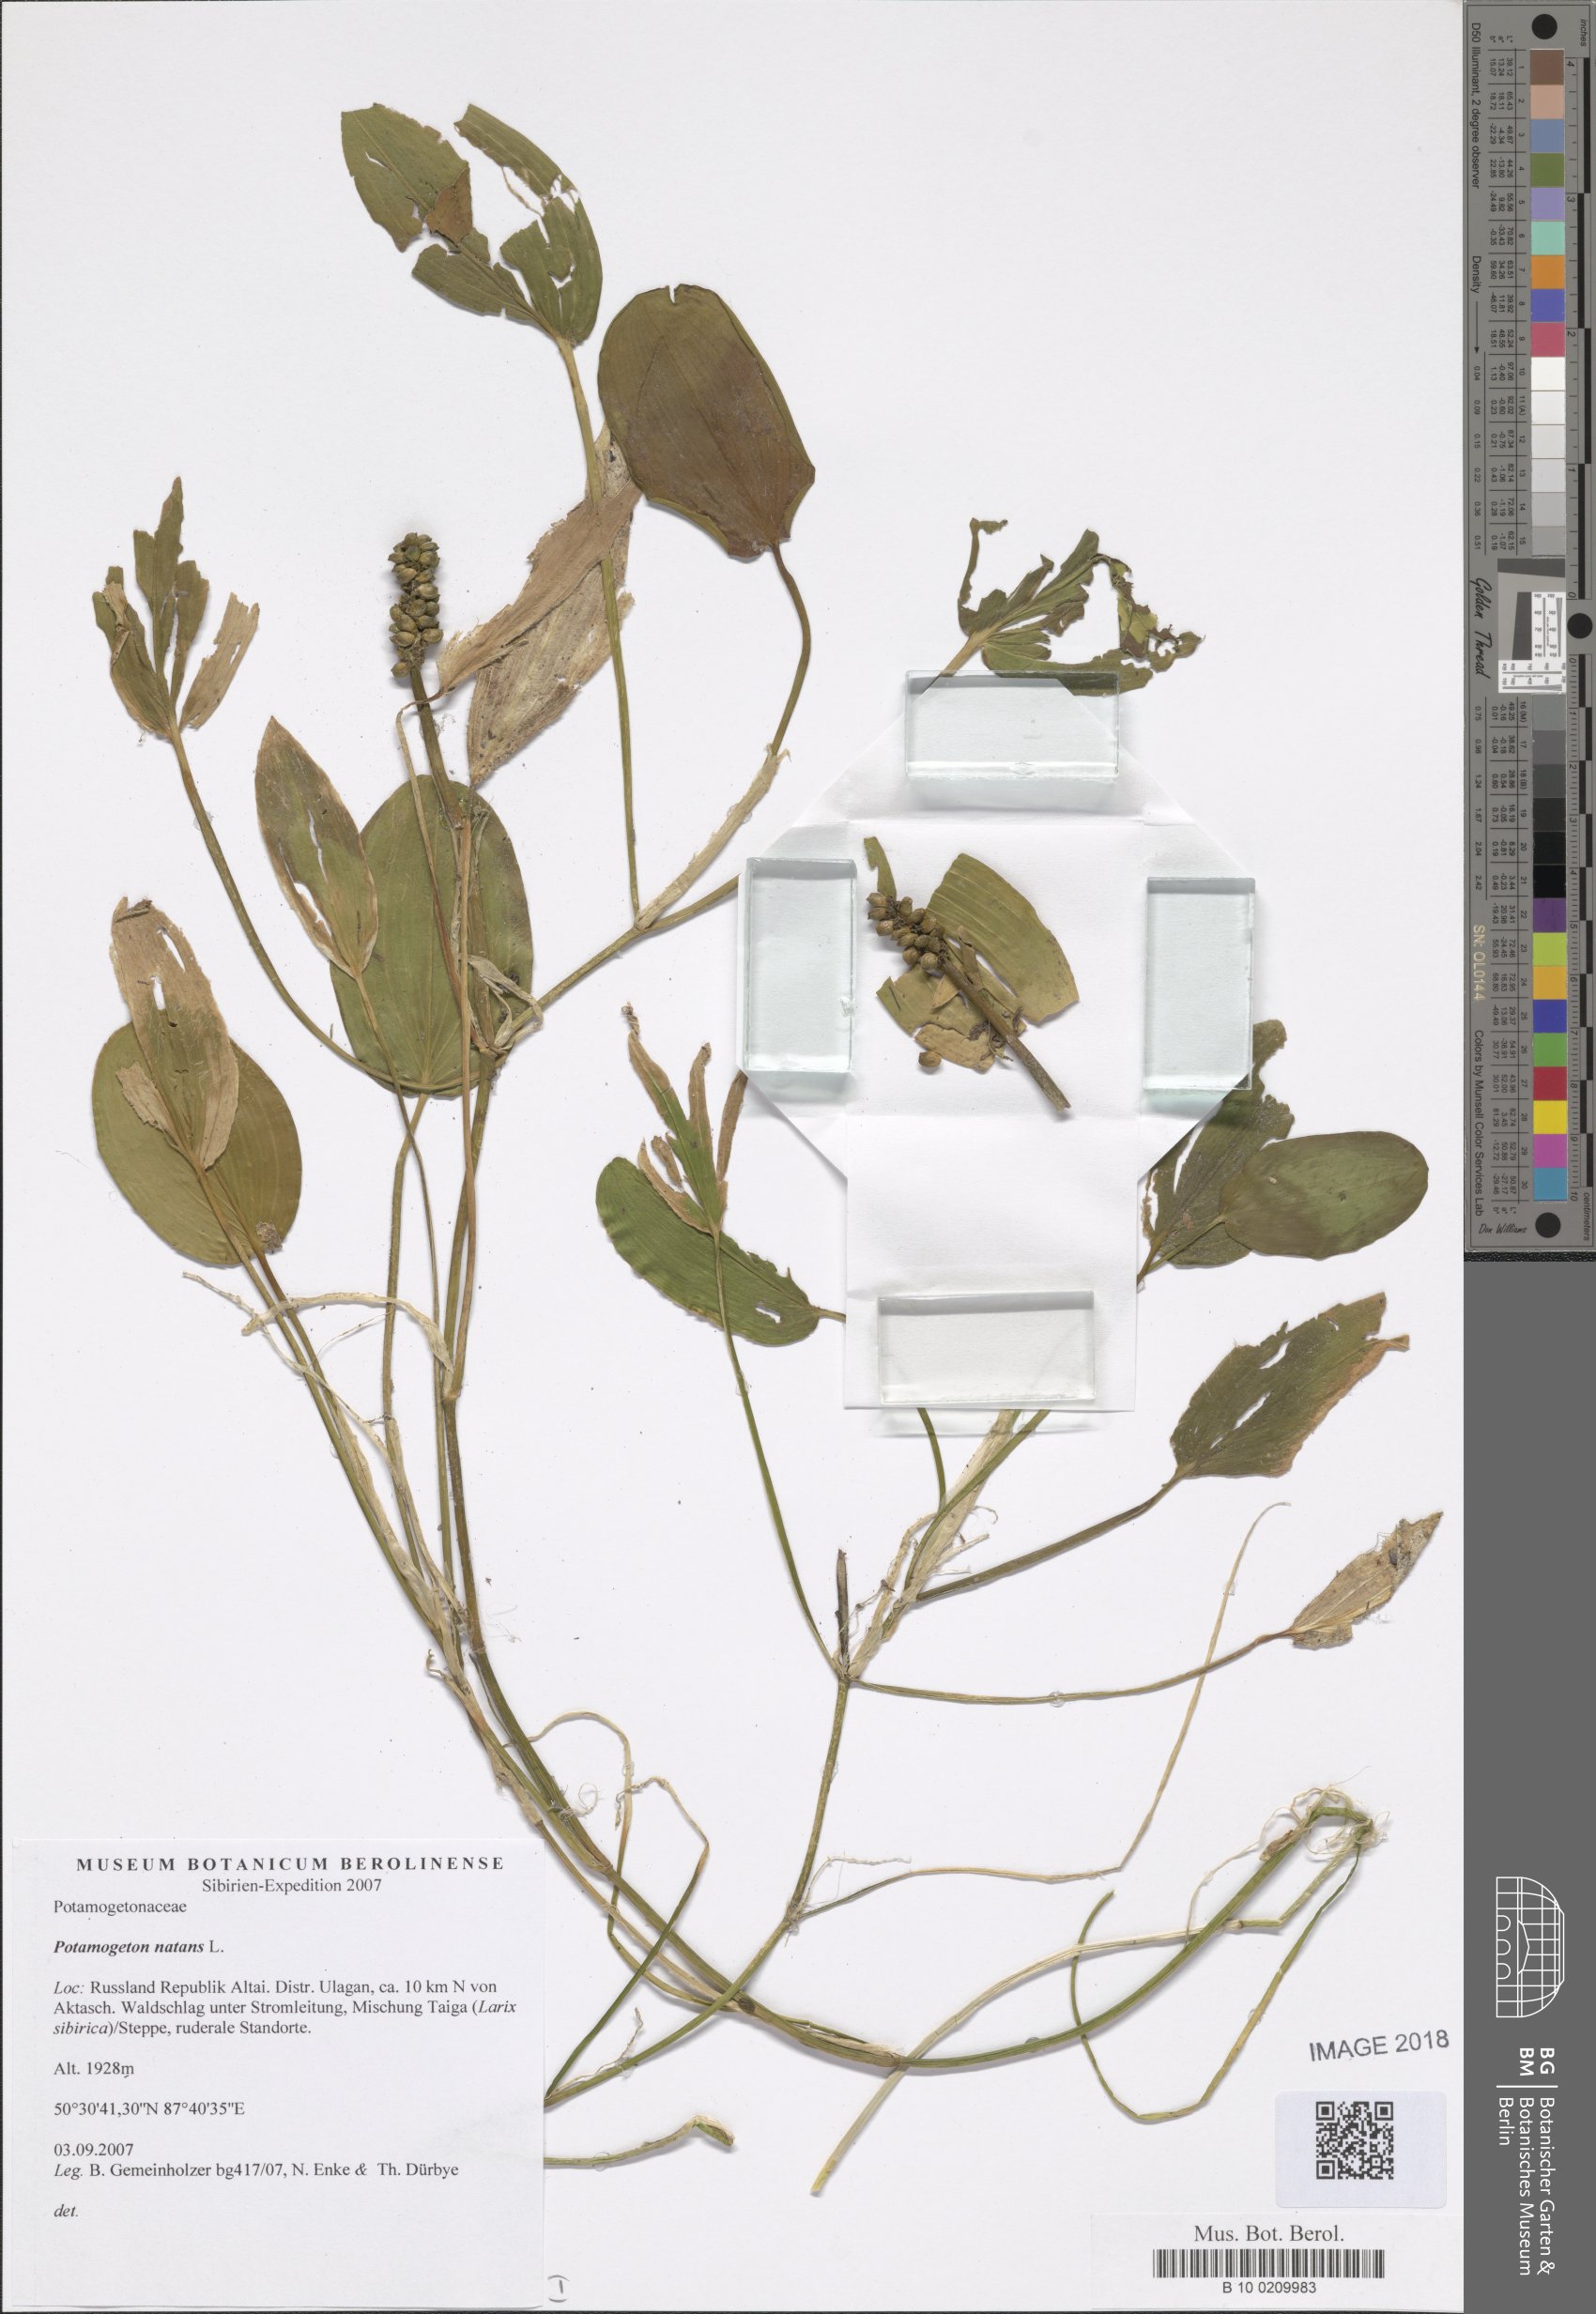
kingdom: Plantae
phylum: Tracheophyta
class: Liliopsida
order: Alismatales
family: Potamogetonaceae
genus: Potamogeton
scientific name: Potamogeton natans
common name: Broad-leaved pondweed
